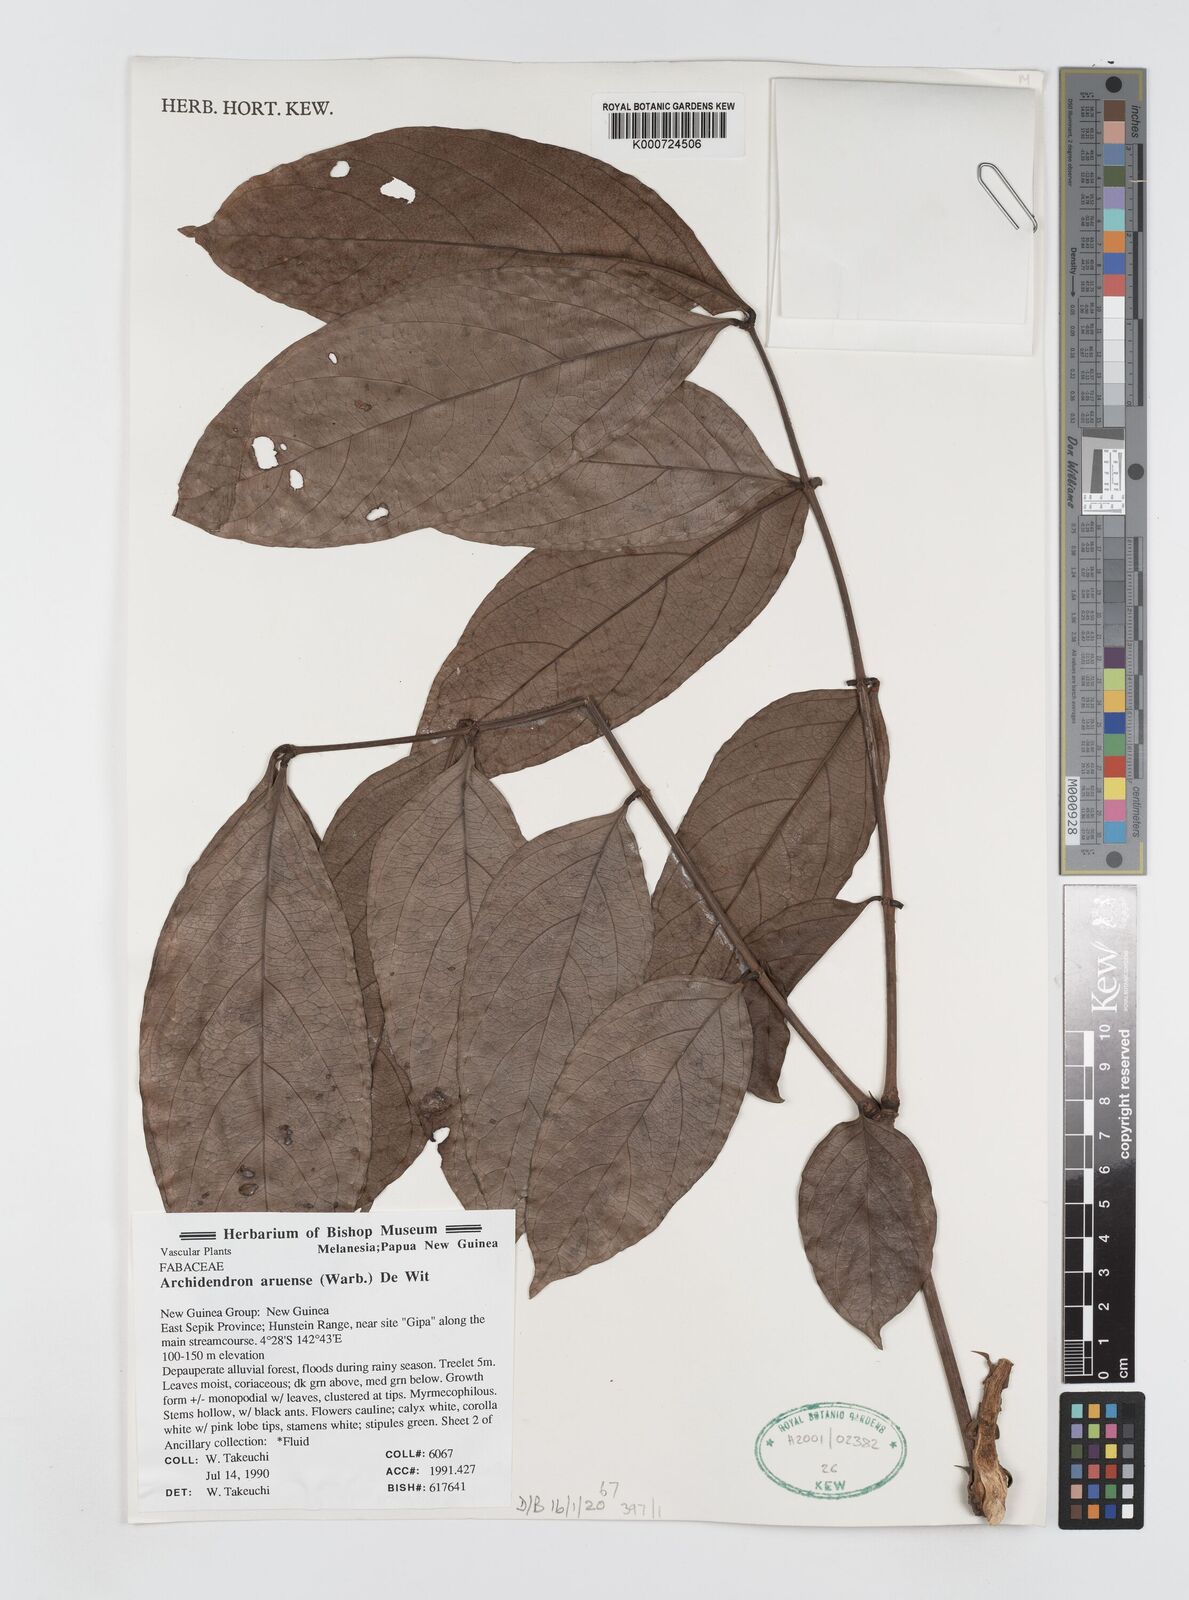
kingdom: Plantae
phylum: Tracheophyta
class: Magnoliopsida
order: Fabales
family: Fabaceae
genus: Archidendron
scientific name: Archidendron aruense
